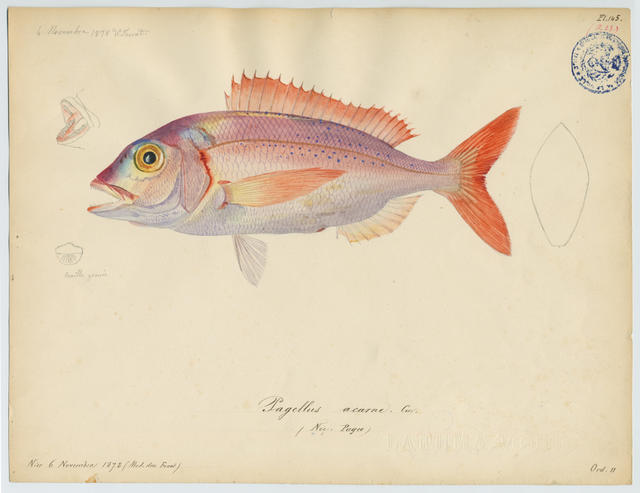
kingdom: Animalia
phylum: Chordata
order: Perciformes
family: Sparidae
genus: Pagellus
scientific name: Pagellus acarne
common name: Axillary sea-bream
